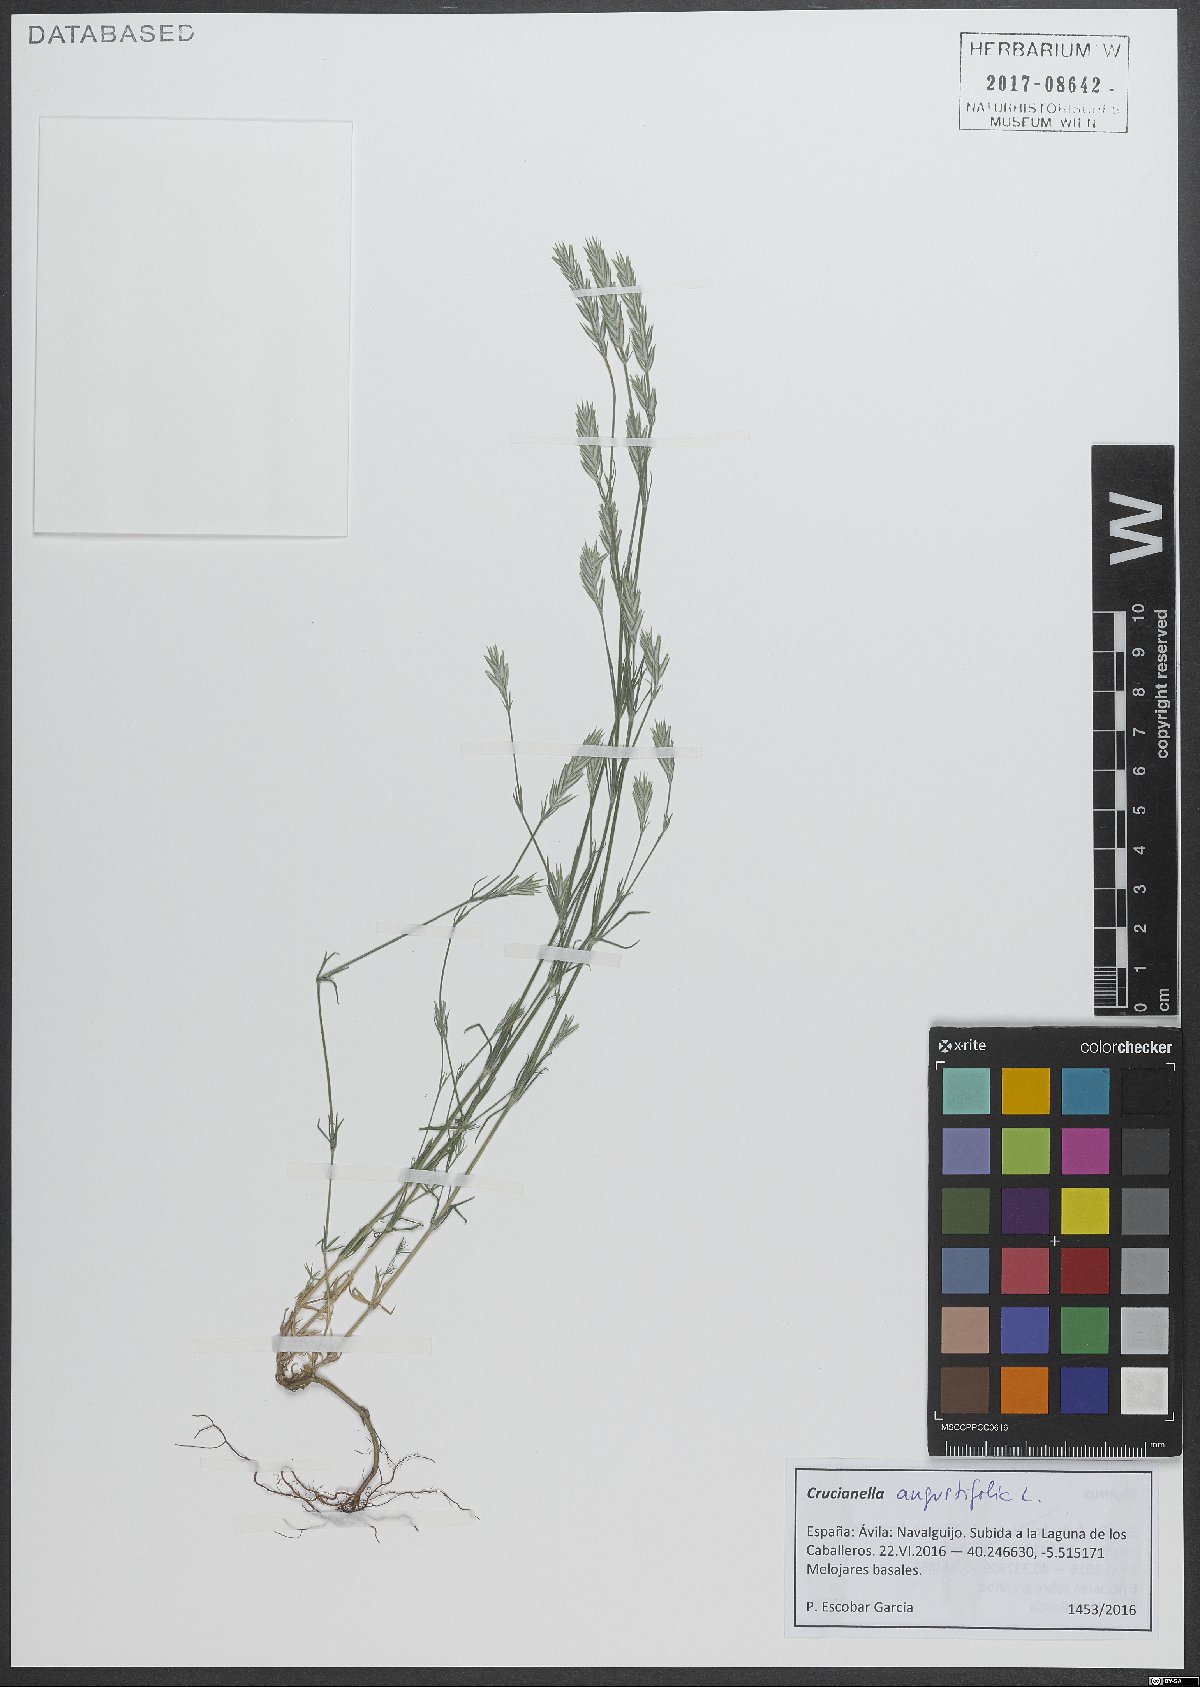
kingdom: Plantae
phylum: Tracheophyta
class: Magnoliopsida
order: Gentianales
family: Rubiaceae
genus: Crucianella
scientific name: Crucianella angustifolia
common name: Narrowleaf crucianella
